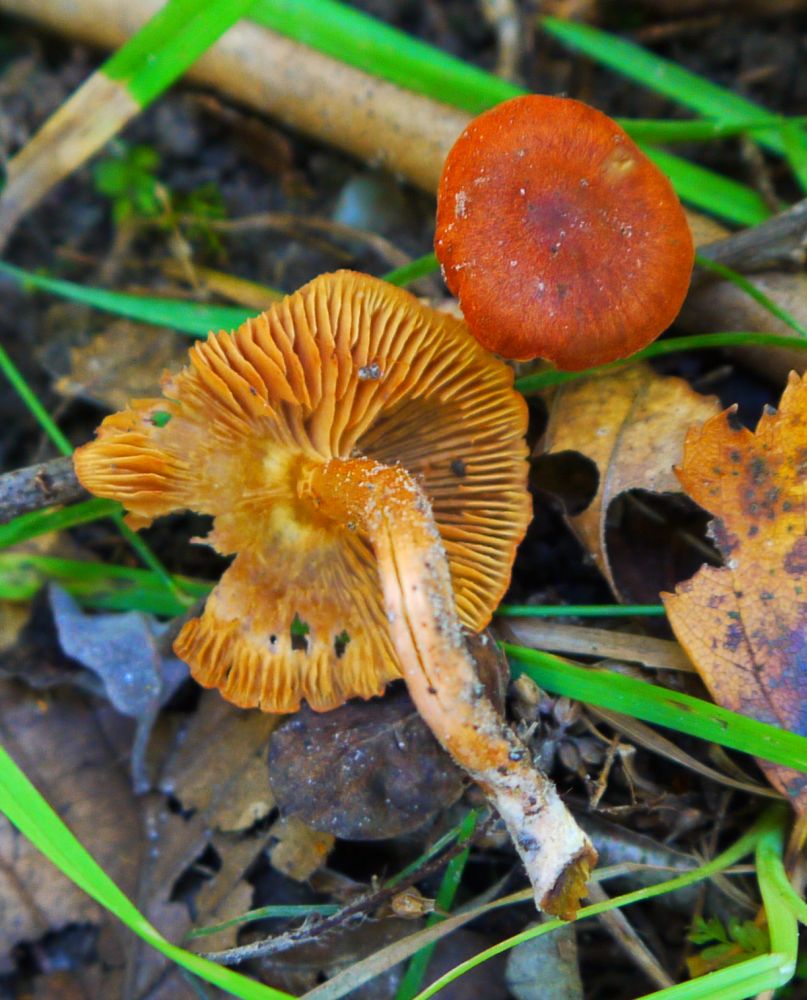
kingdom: Fungi
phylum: Basidiomycota
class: Agaricomycetes
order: Agaricales
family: Cortinariaceae
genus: Cortinarius
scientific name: Cortinarius uliginosus
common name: mose-slørhat
